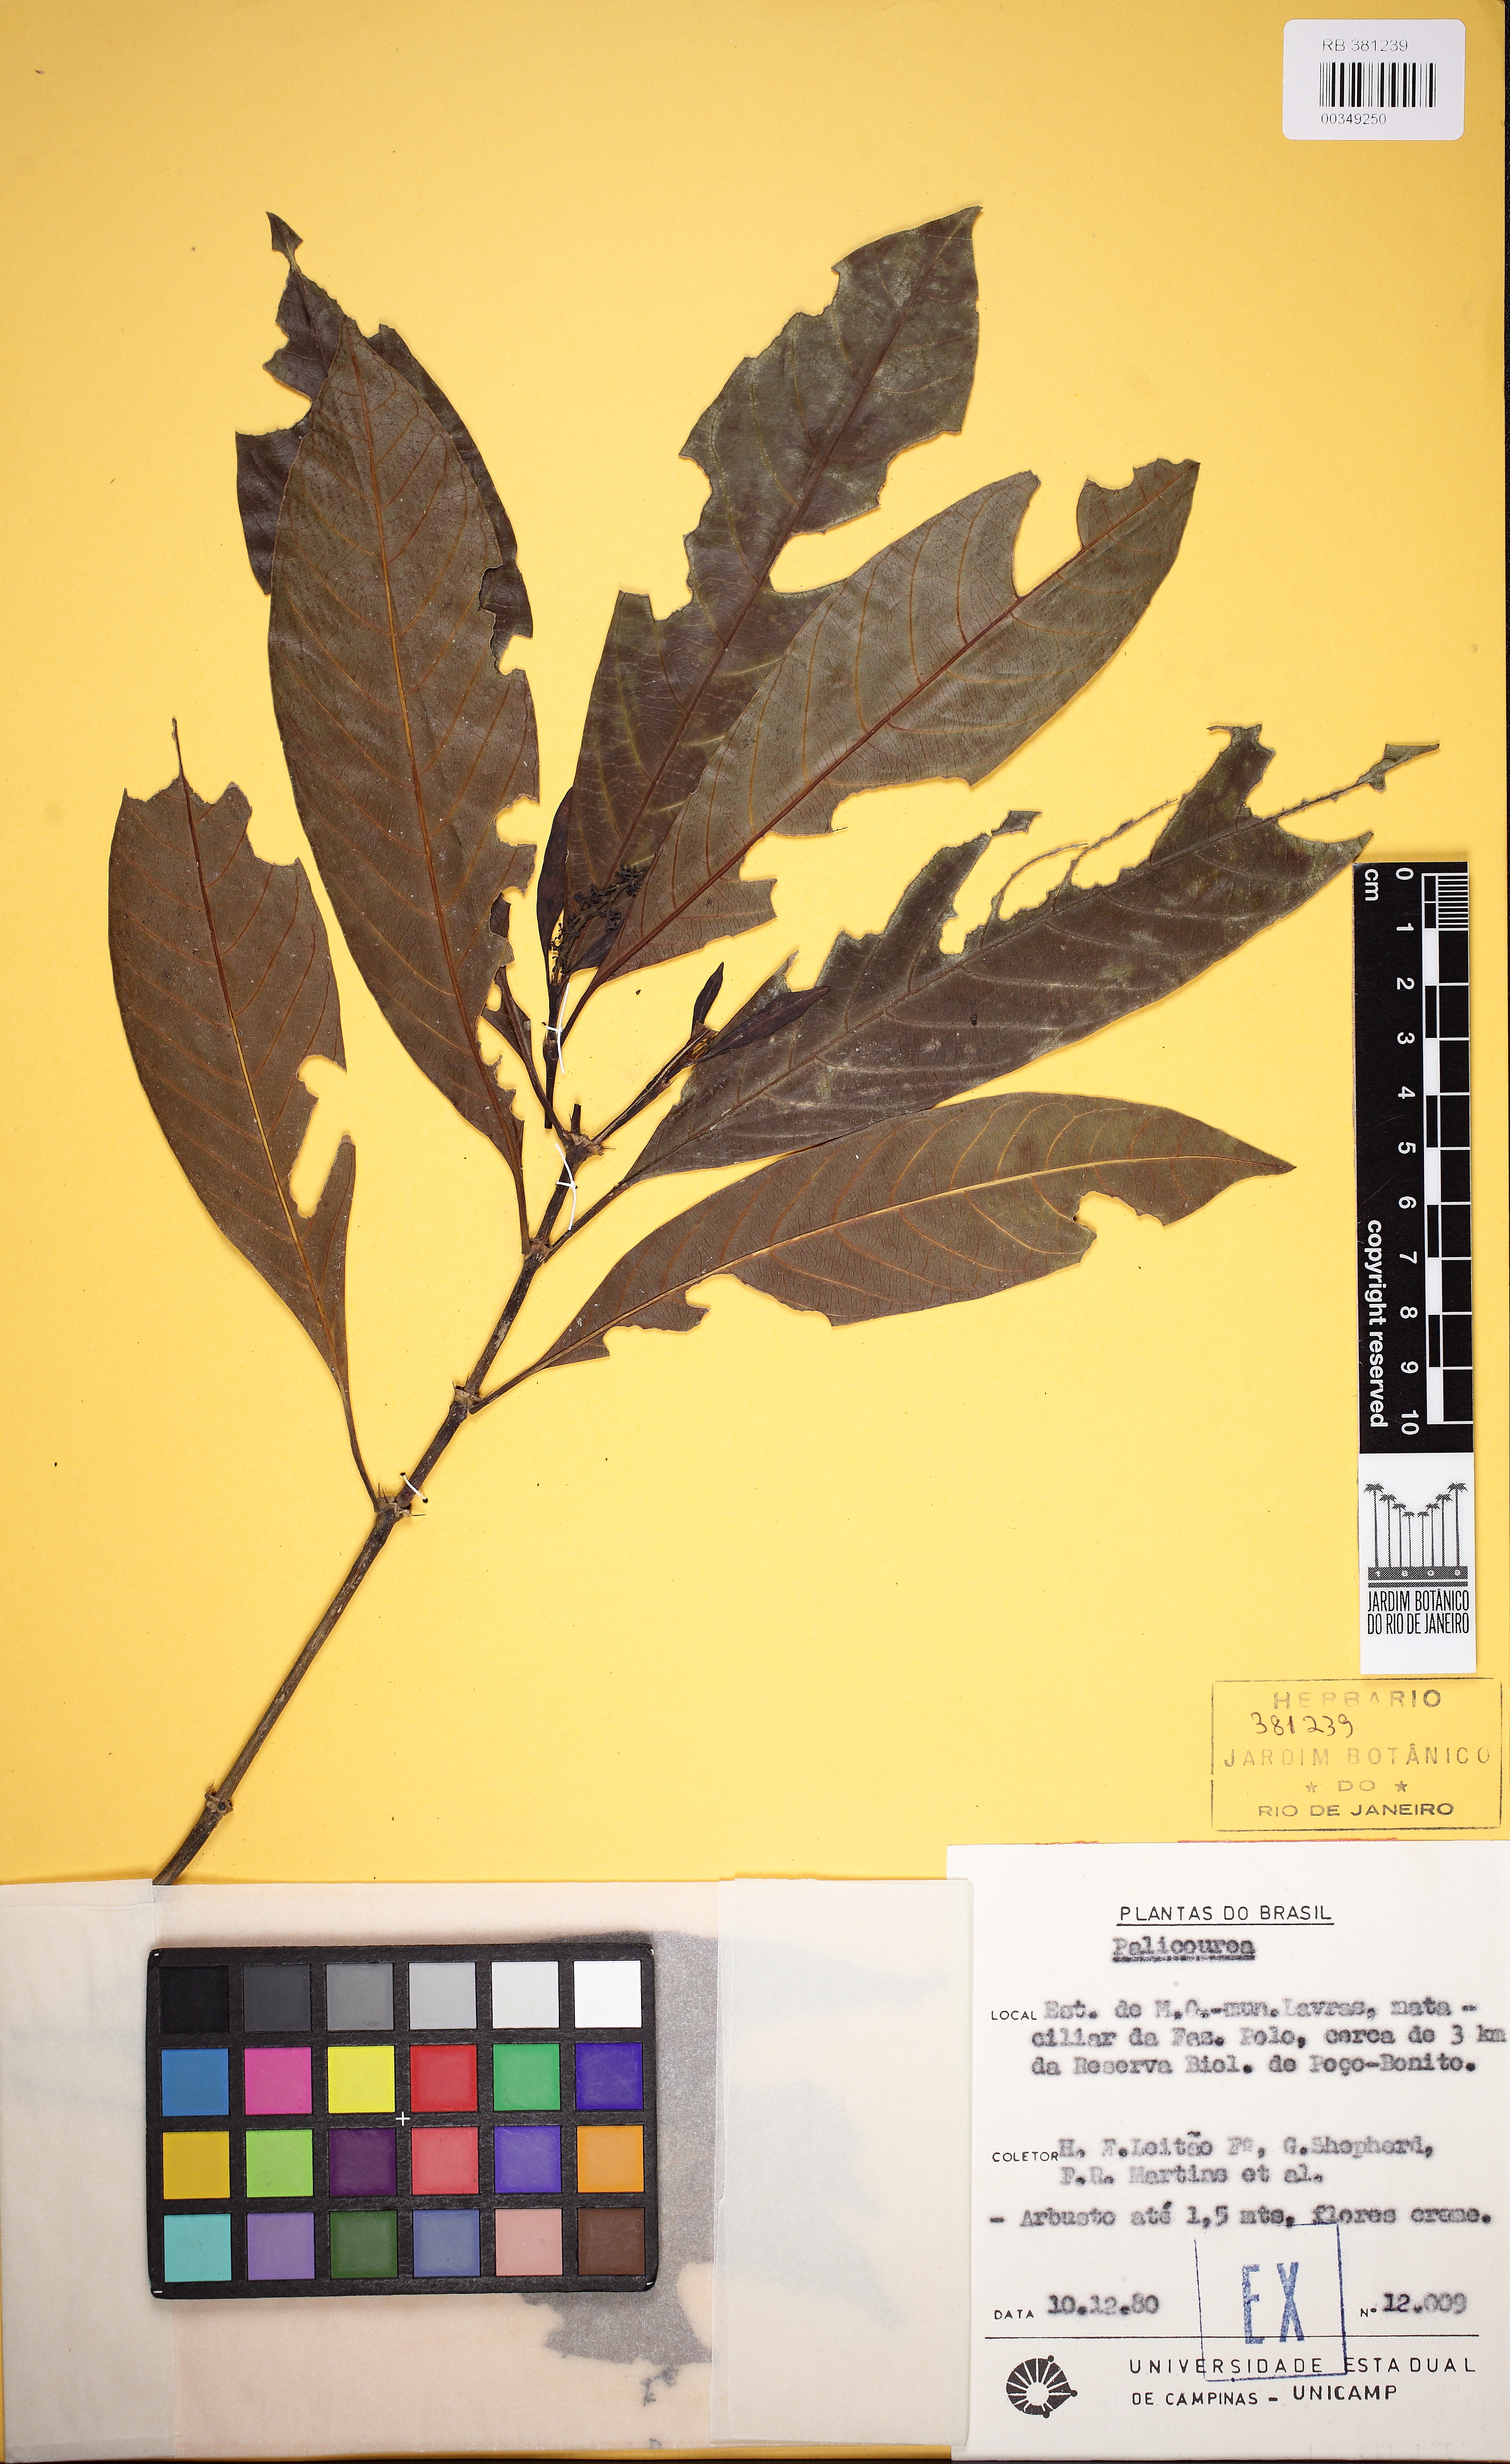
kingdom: Plantae
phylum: Tracheophyta
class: Magnoliopsida
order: Gentianales
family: Rubiaceae
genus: Palicourea
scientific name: Palicourea
